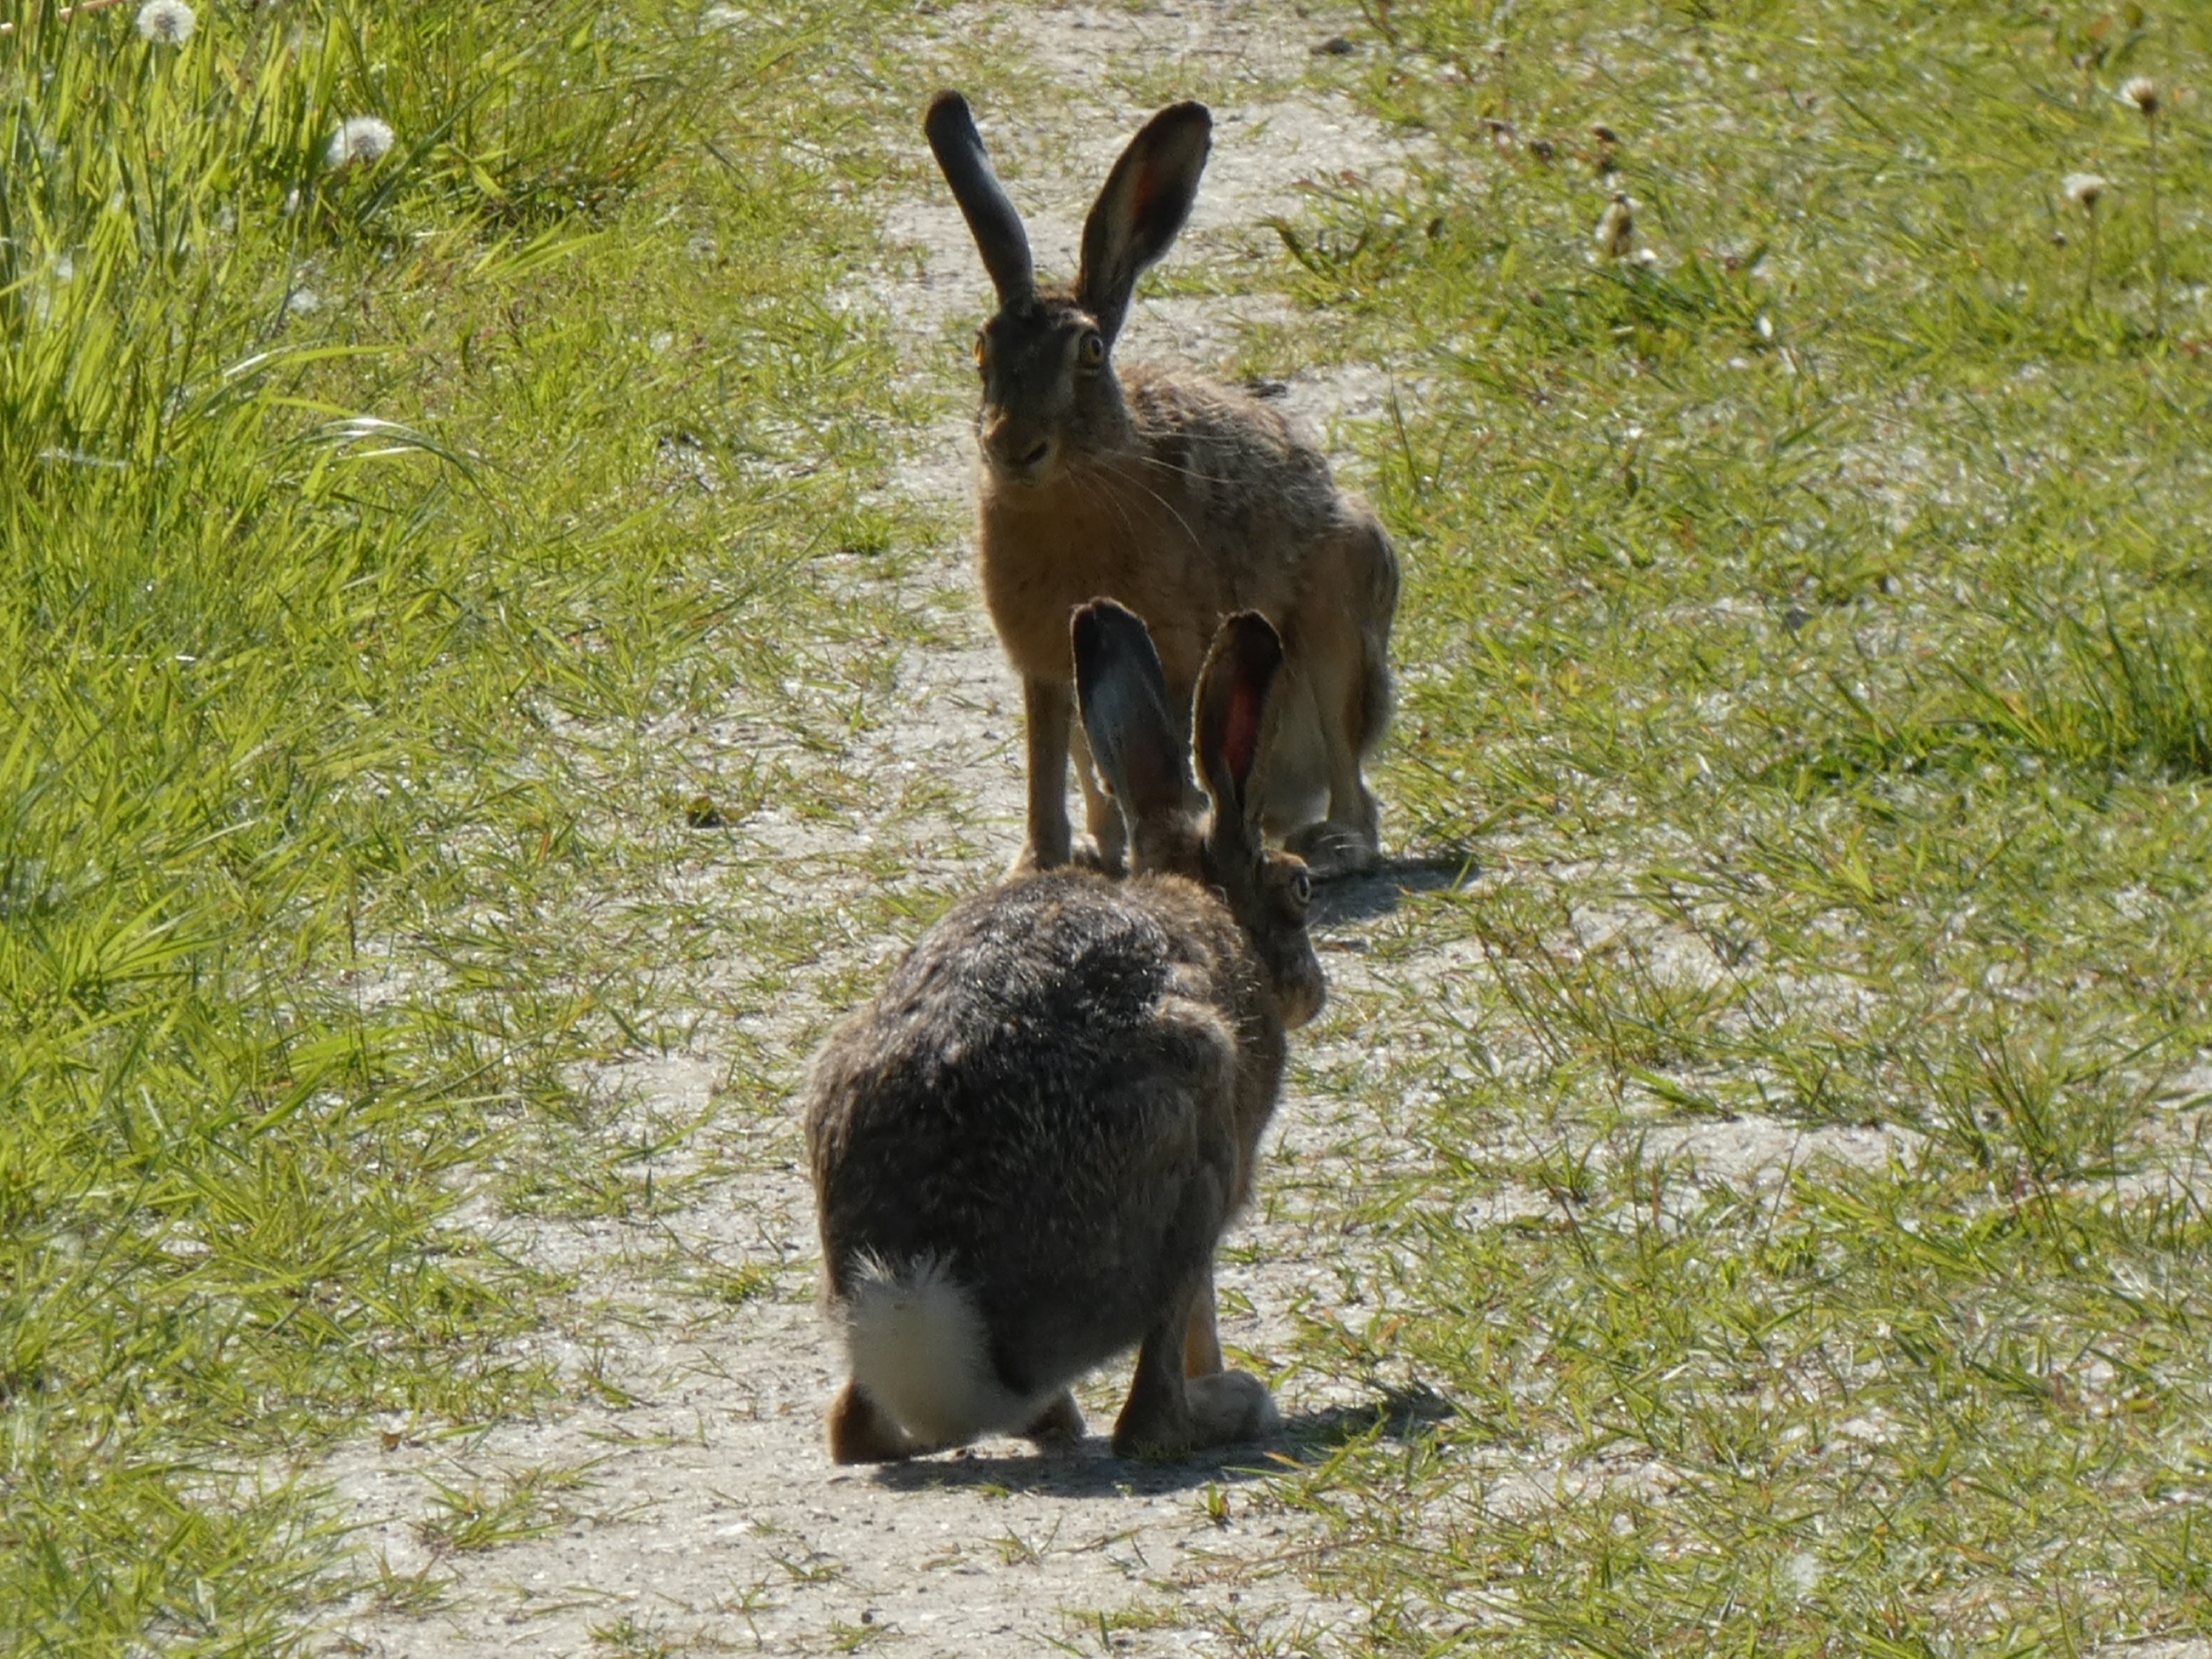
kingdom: Animalia
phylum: Chordata
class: Mammalia
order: Lagomorpha
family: Leporidae
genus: Lepus
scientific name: Lepus europaeus
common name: Hare
